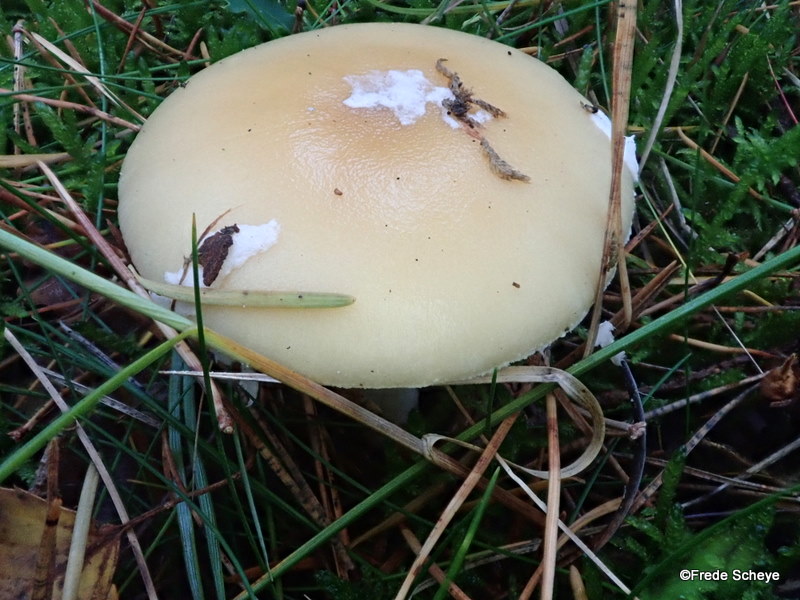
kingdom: Fungi
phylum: Basidiomycota
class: Agaricomycetes
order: Agaricales
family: Amanitaceae
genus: Amanita
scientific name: Amanita gemmata
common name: okkergul fluesvamp
